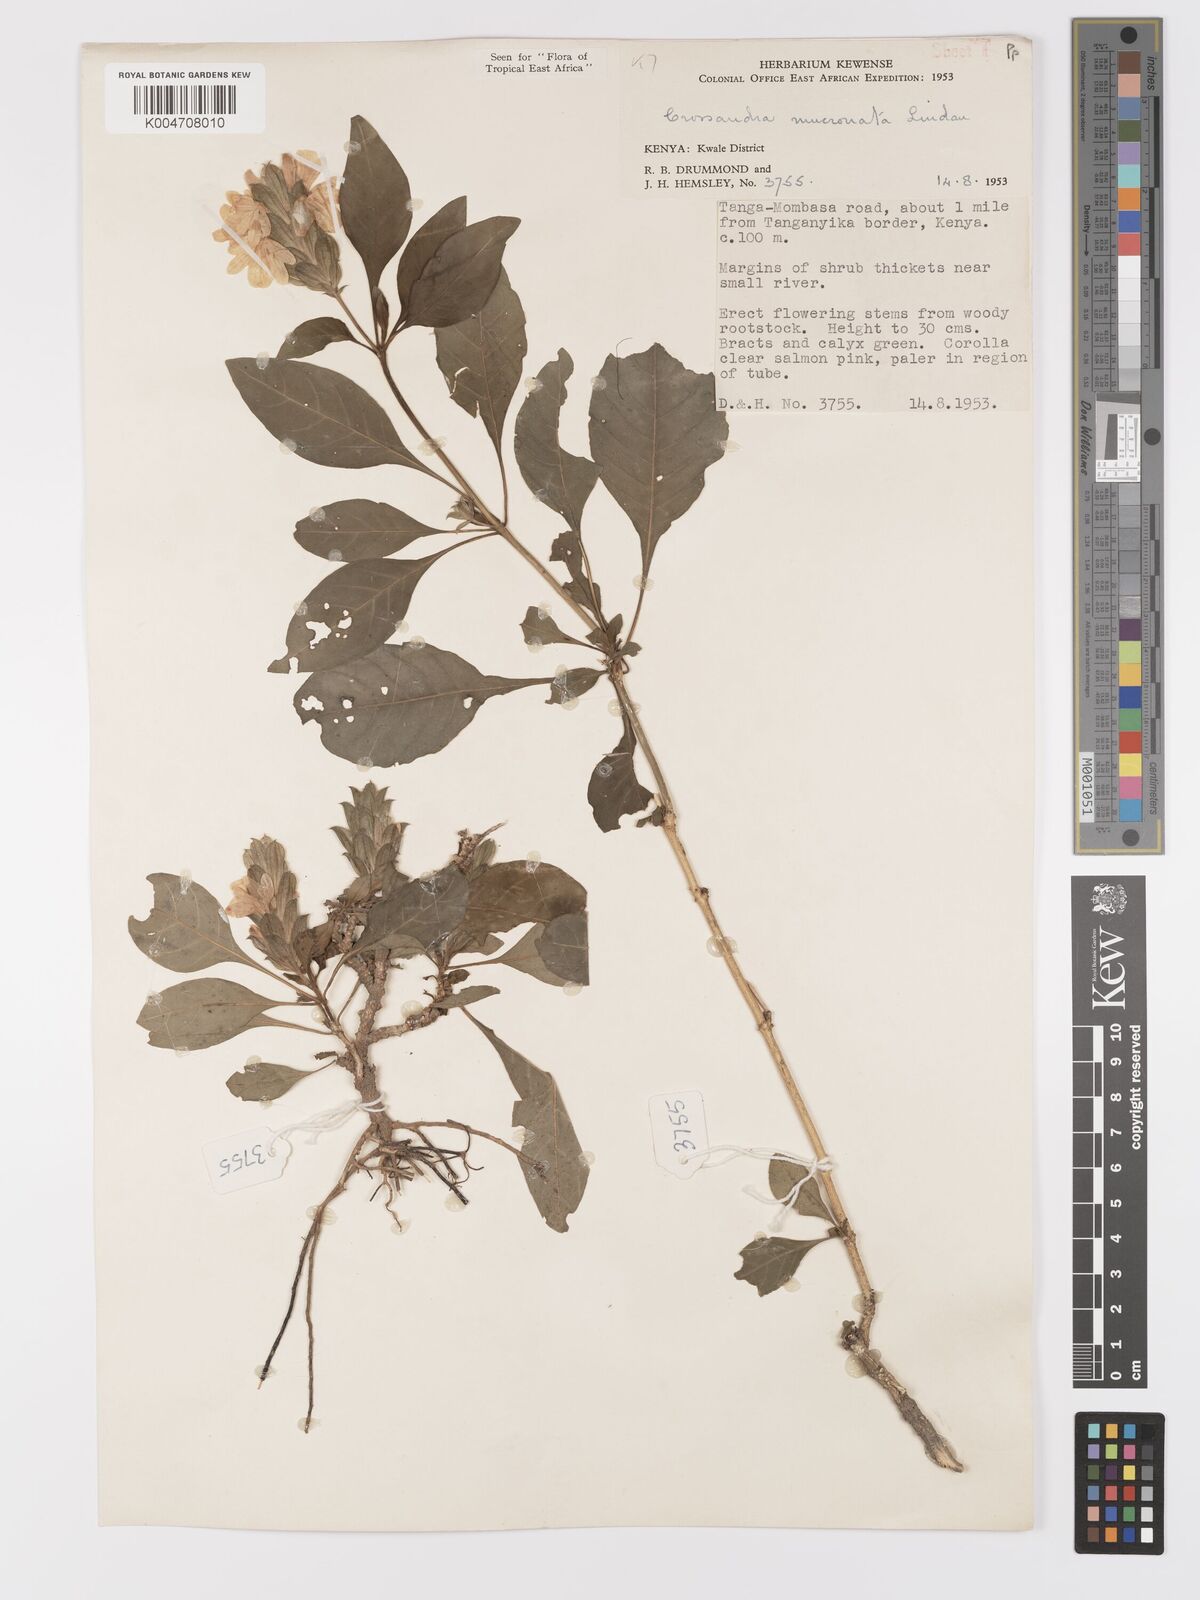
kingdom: Plantae
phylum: Tracheophyta
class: Magnoliopsida
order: Lamiales
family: Acanthaceae
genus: Crossandra
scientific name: Crossandra mucronata
